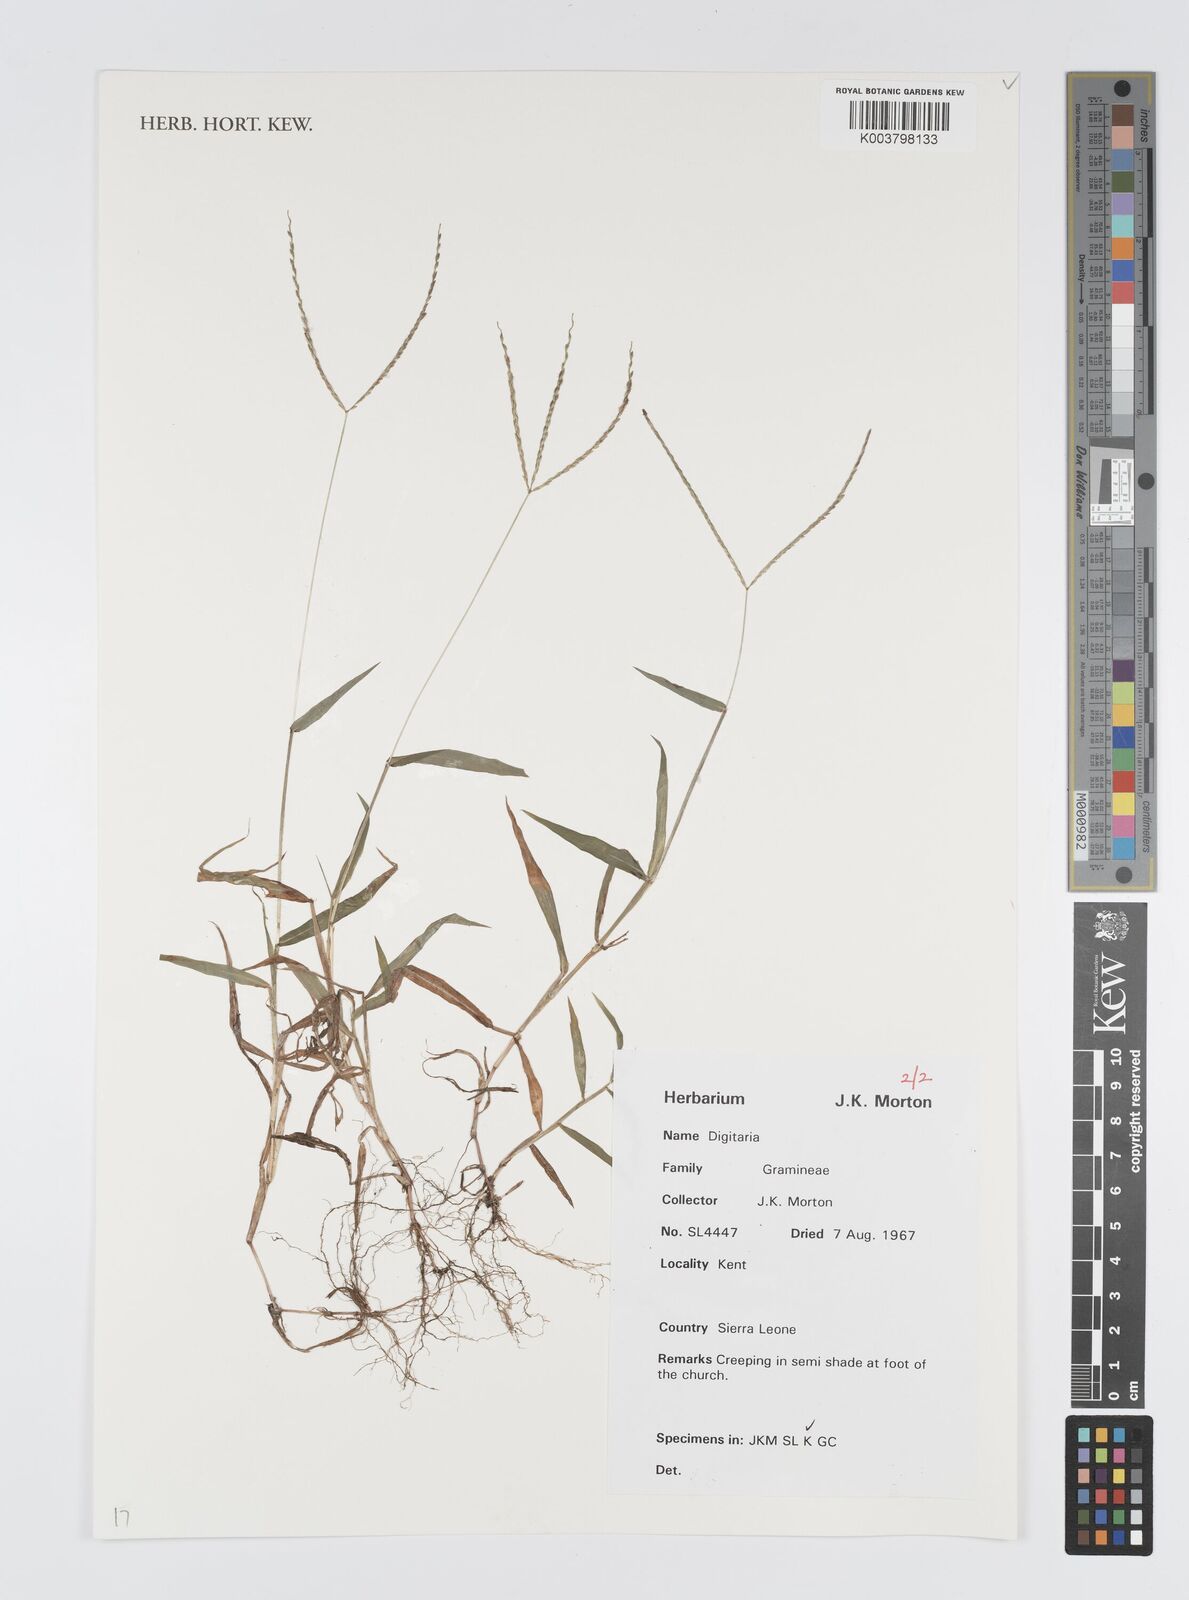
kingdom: Plantae
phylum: Tracheophyta
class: Liliopsida
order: Poales
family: Poaceae
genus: Digitaria
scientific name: Digitaria
